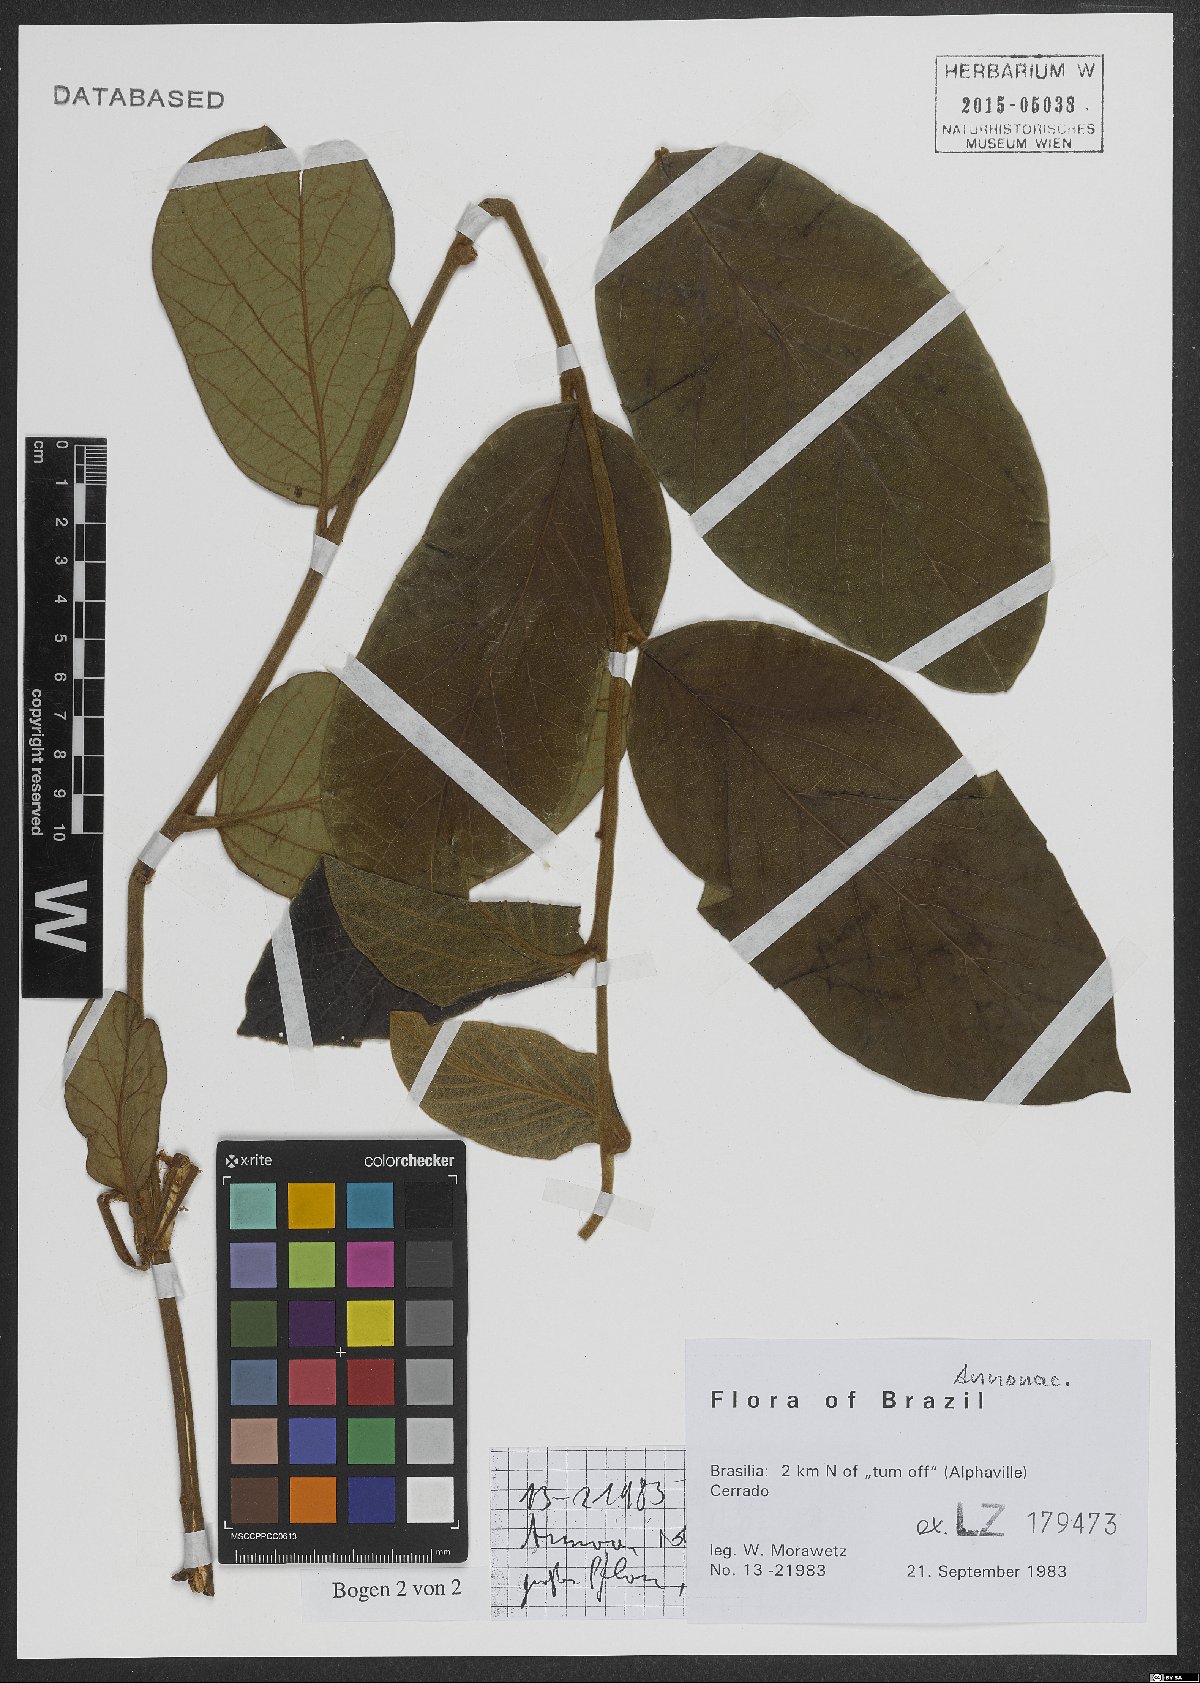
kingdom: Plantae
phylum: Tracheophyta
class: Magnoliopsida
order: Magnoliales
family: Annonaceae
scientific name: Annonaceae
